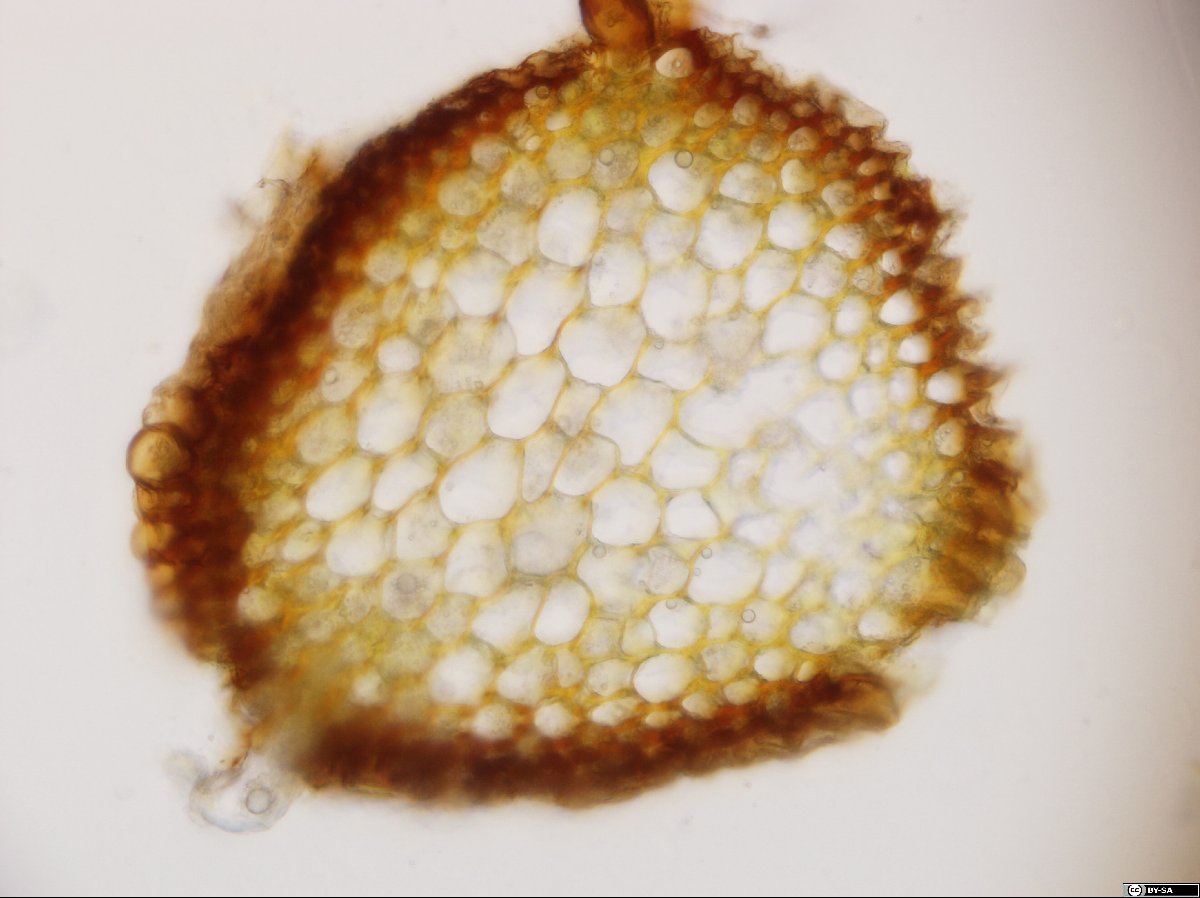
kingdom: Plantae
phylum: Bryophyta
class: Bryopsida
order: Pottiales
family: Pottiaceae
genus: Syntrichia
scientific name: Syntrichia ruralis
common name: Sidewalk screw moss
